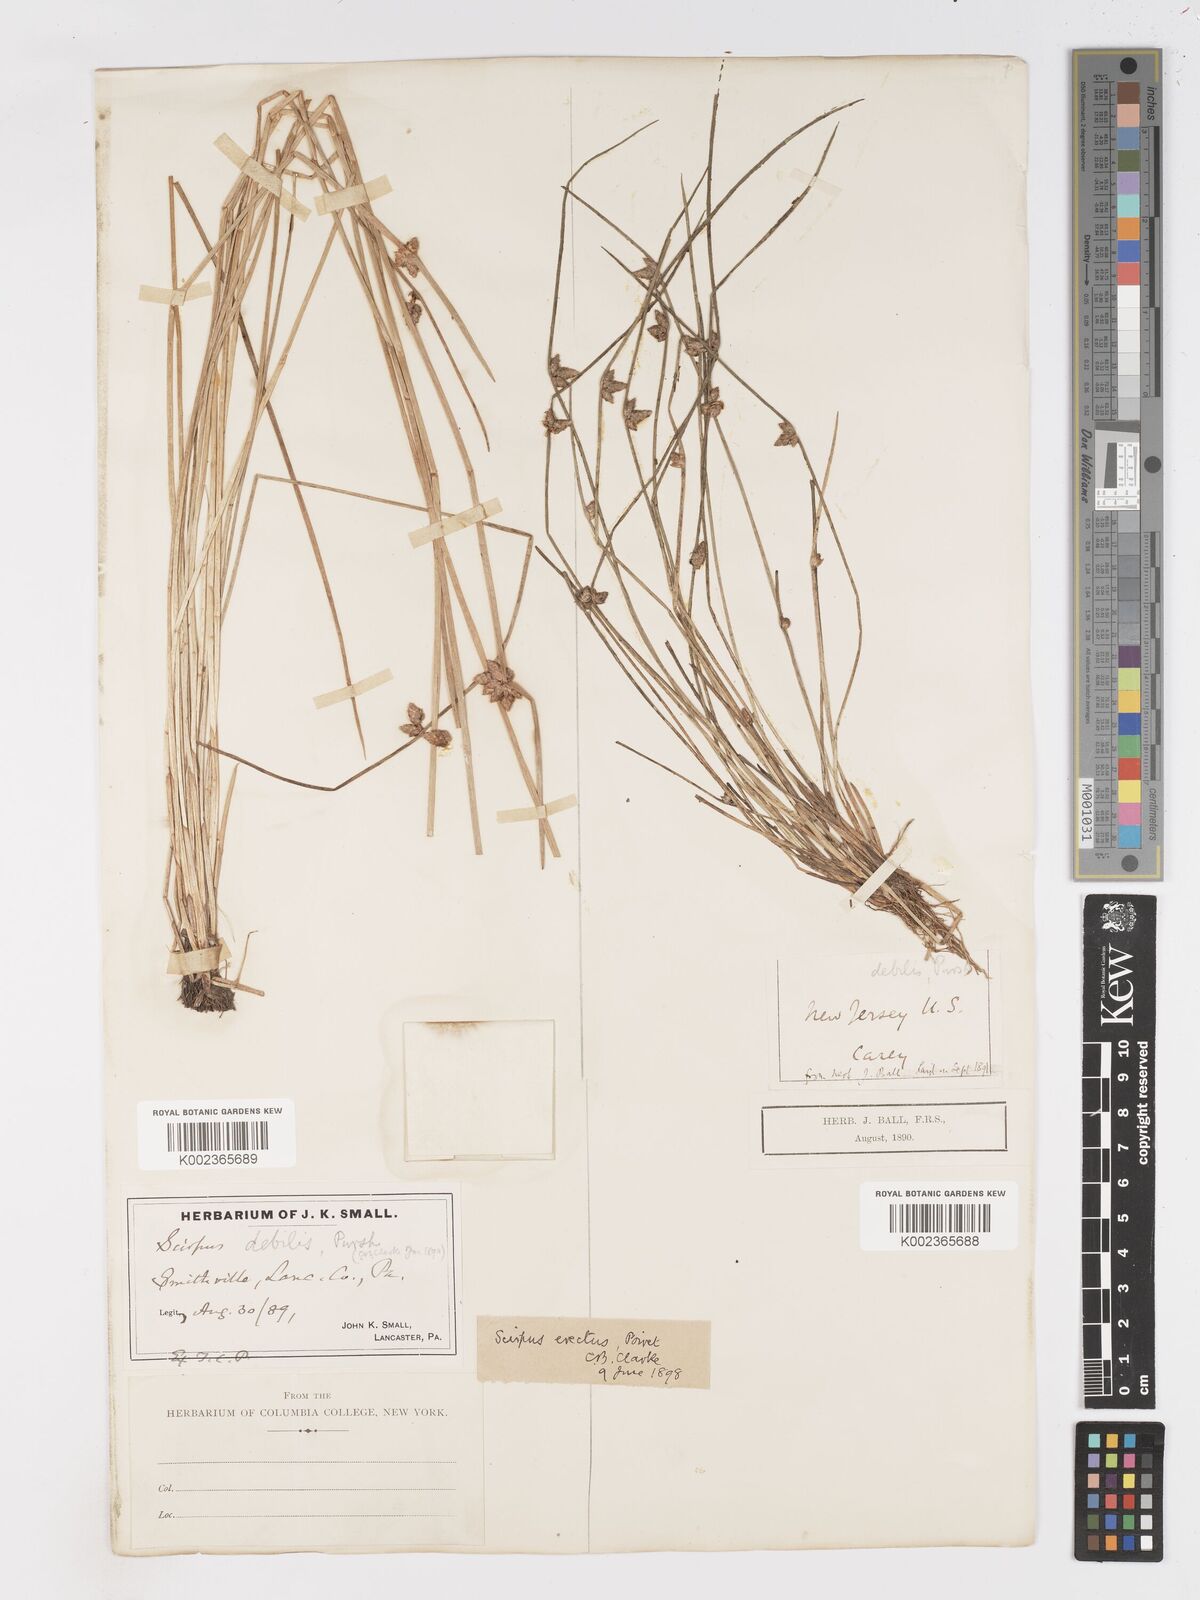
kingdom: Plantae
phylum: Tracheophyta
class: Liliopsida
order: Poales
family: Cyperaceae
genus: Schoenoplectiella
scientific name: Schoenoplectiella purshiana
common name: Weak-stalked bulrush
